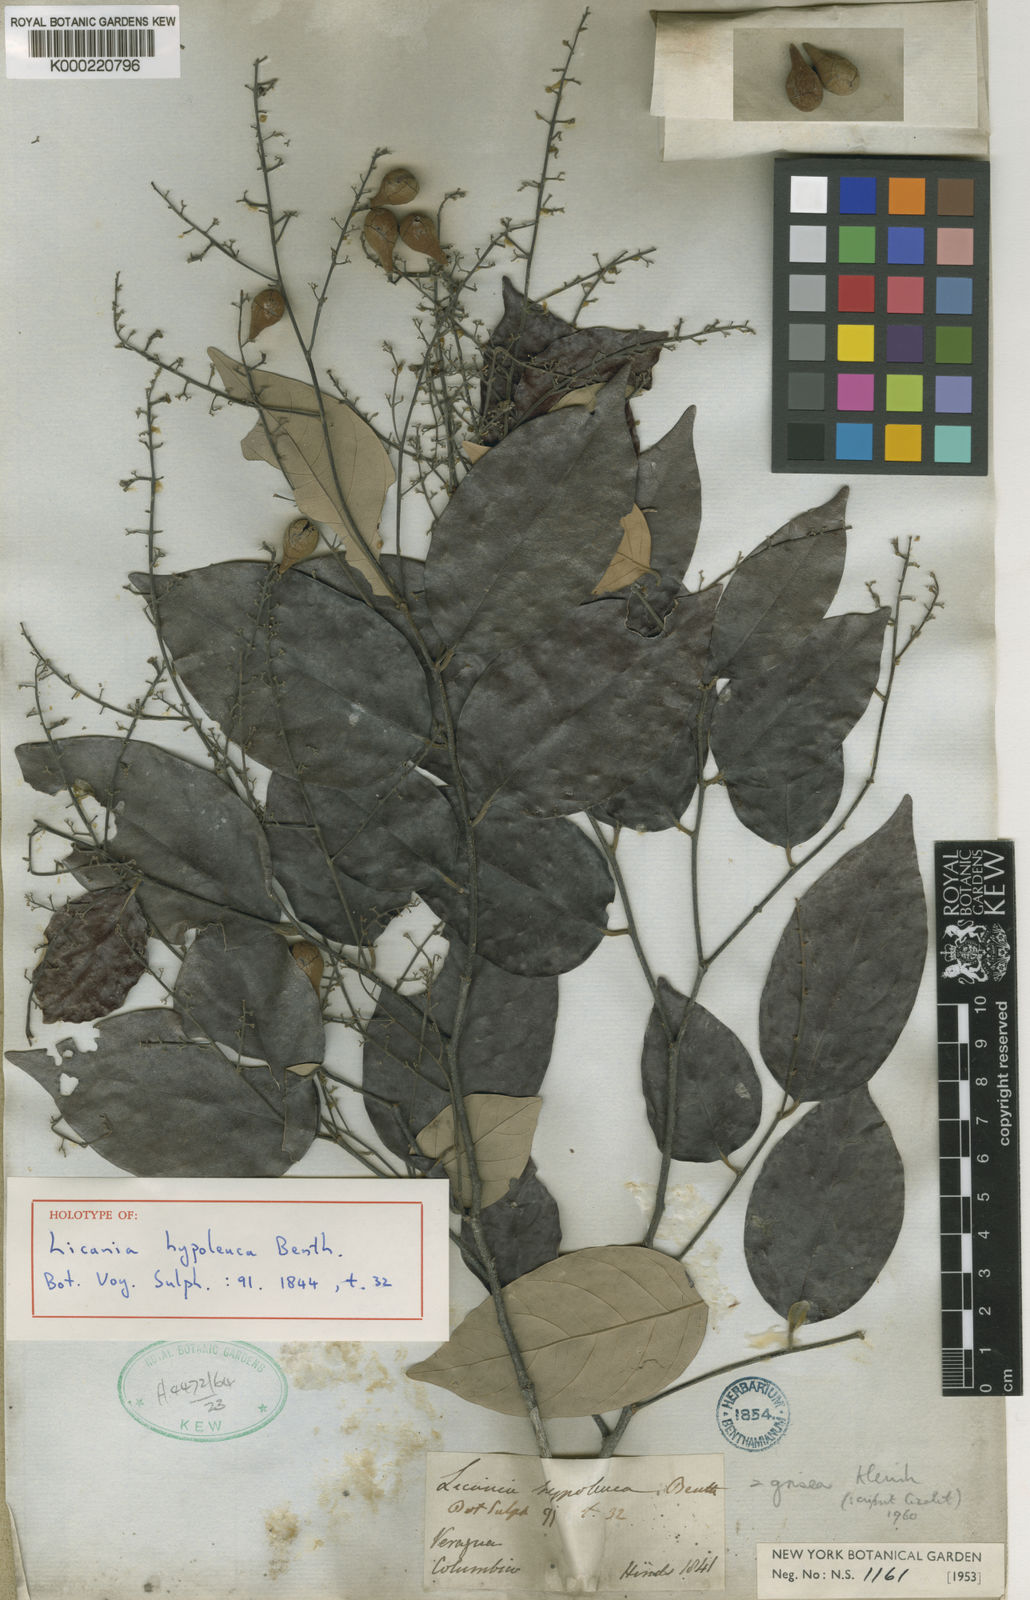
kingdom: Plantae
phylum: Tracheophyta
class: Magnoliopsida
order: Malpighiales
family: Chrysobalanaceae
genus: Licania
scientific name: Licania hypoleuca
